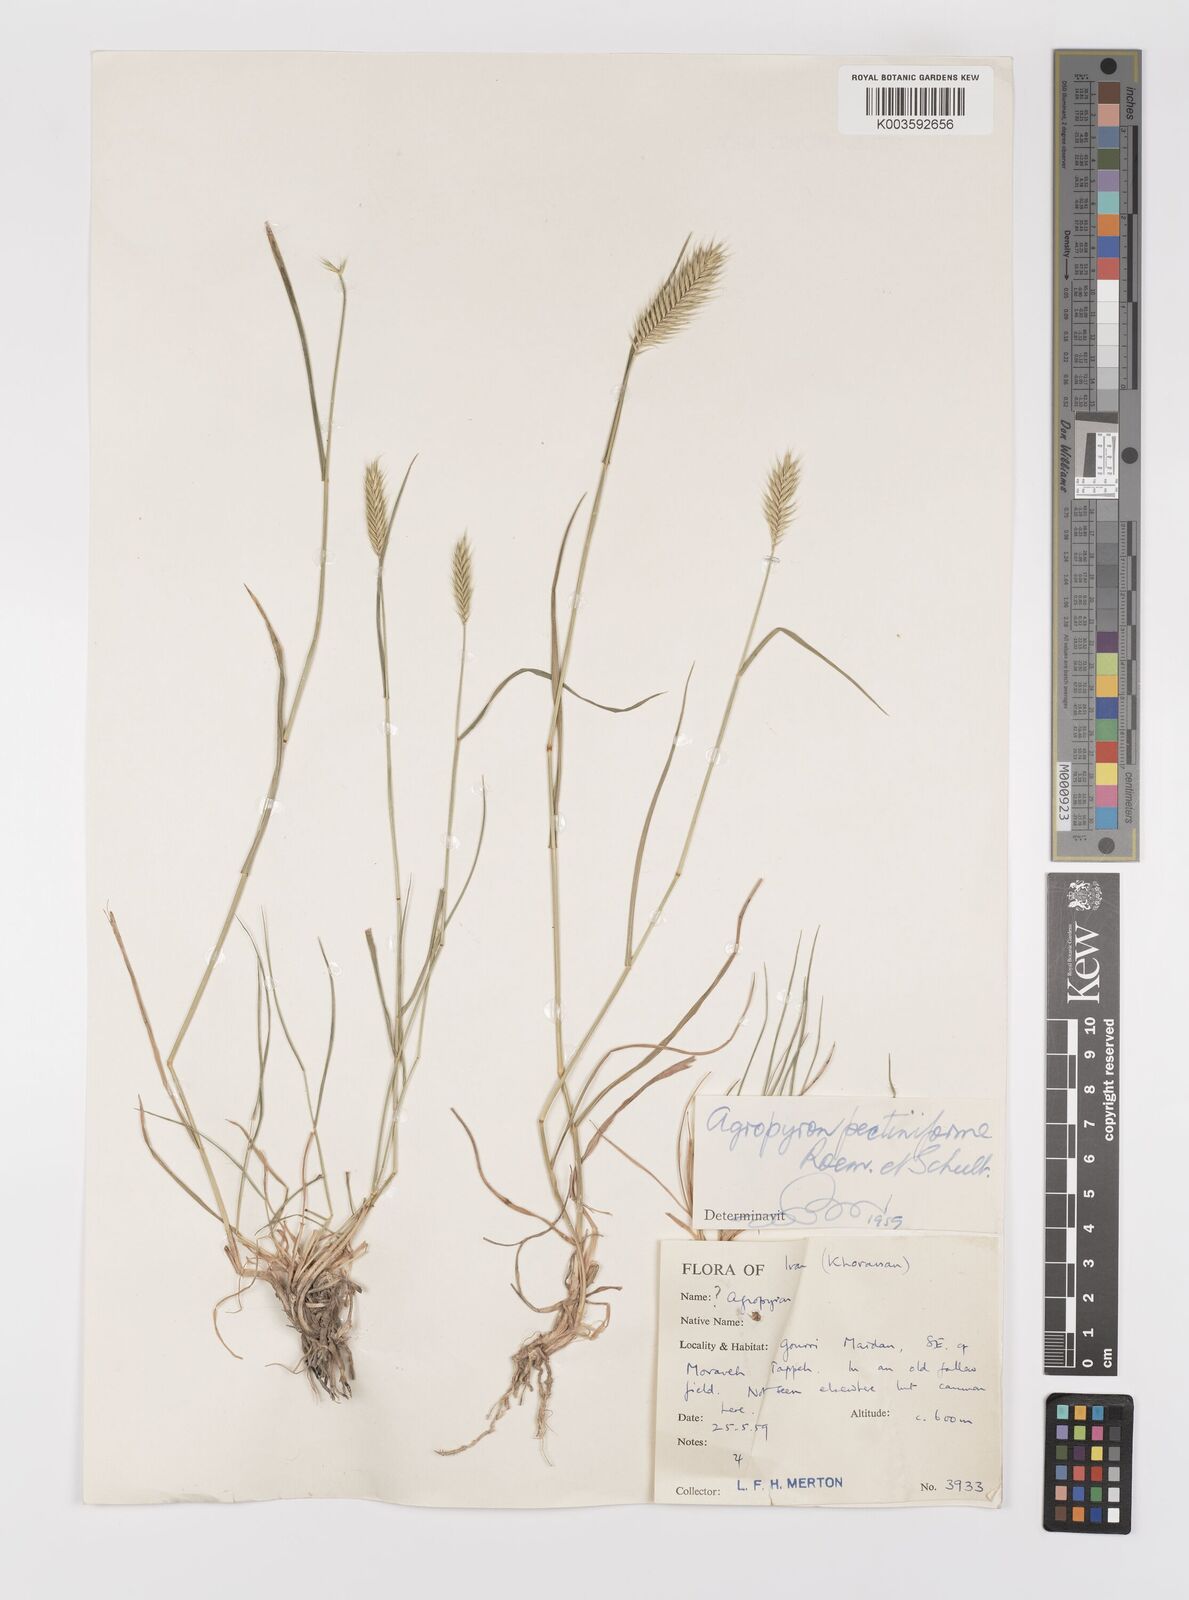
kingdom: Plantae
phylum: Tracheophyta
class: Liliopsida
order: Poales
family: Poaceae
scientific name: Poaceae
